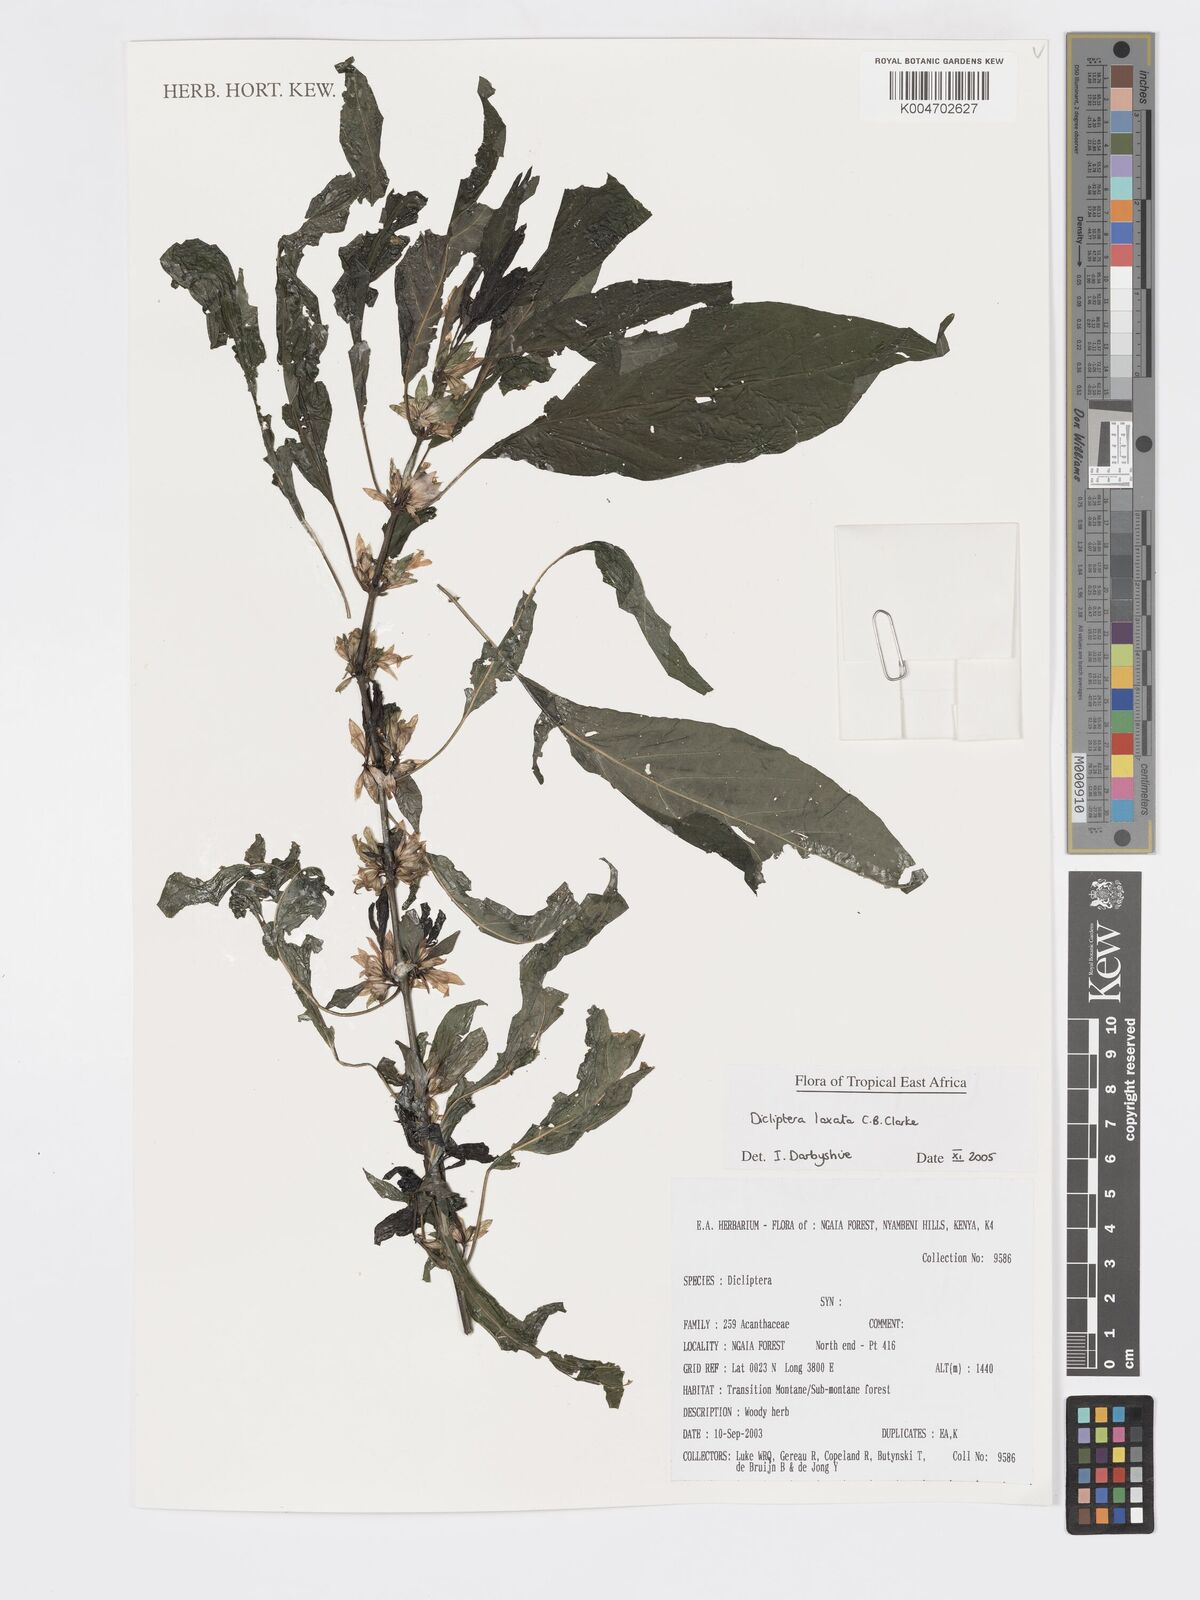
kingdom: Plantae
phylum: Tracheophyta
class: Magnoliopsida
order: Lamiales
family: Acanthaceae
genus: Dicliptera
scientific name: Dicliptera laxata
